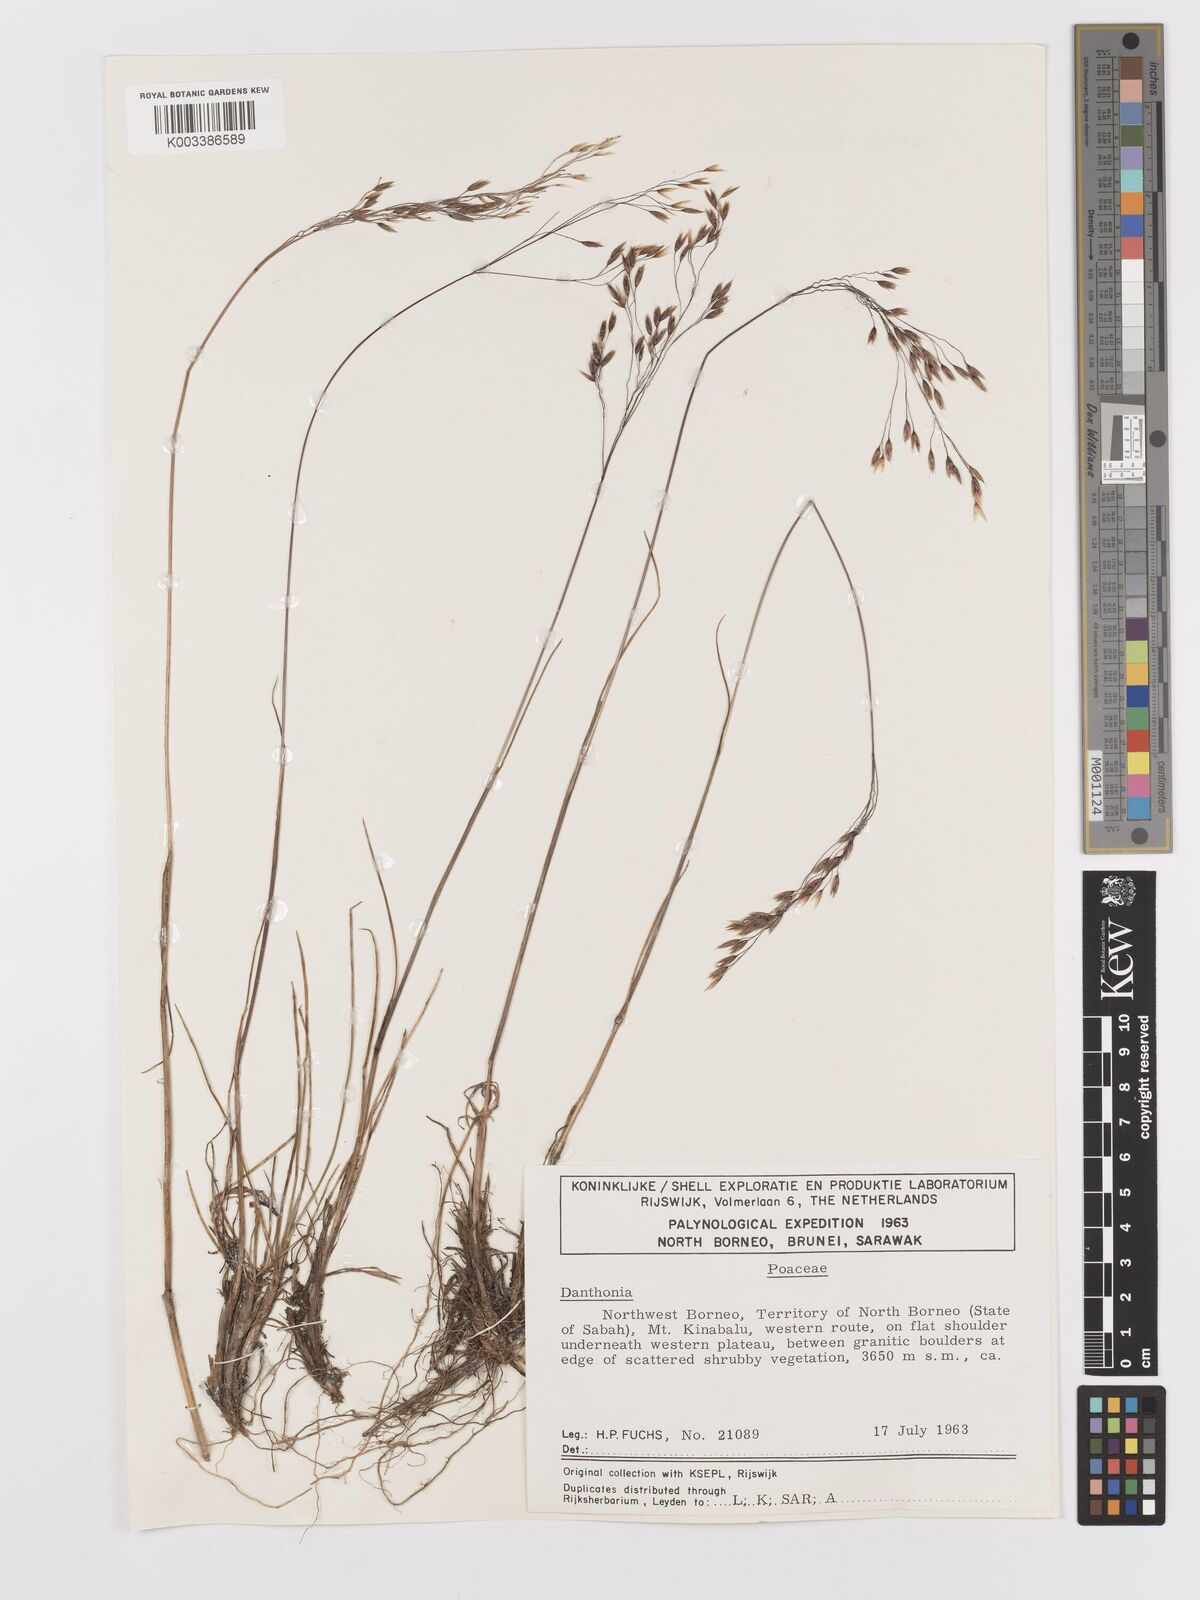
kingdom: Plantae
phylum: Tracheophyta
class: Liliopsida
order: Poales
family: Poaceae
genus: Avenella
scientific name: Avenella flexuosa
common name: Wavy hairgrass
